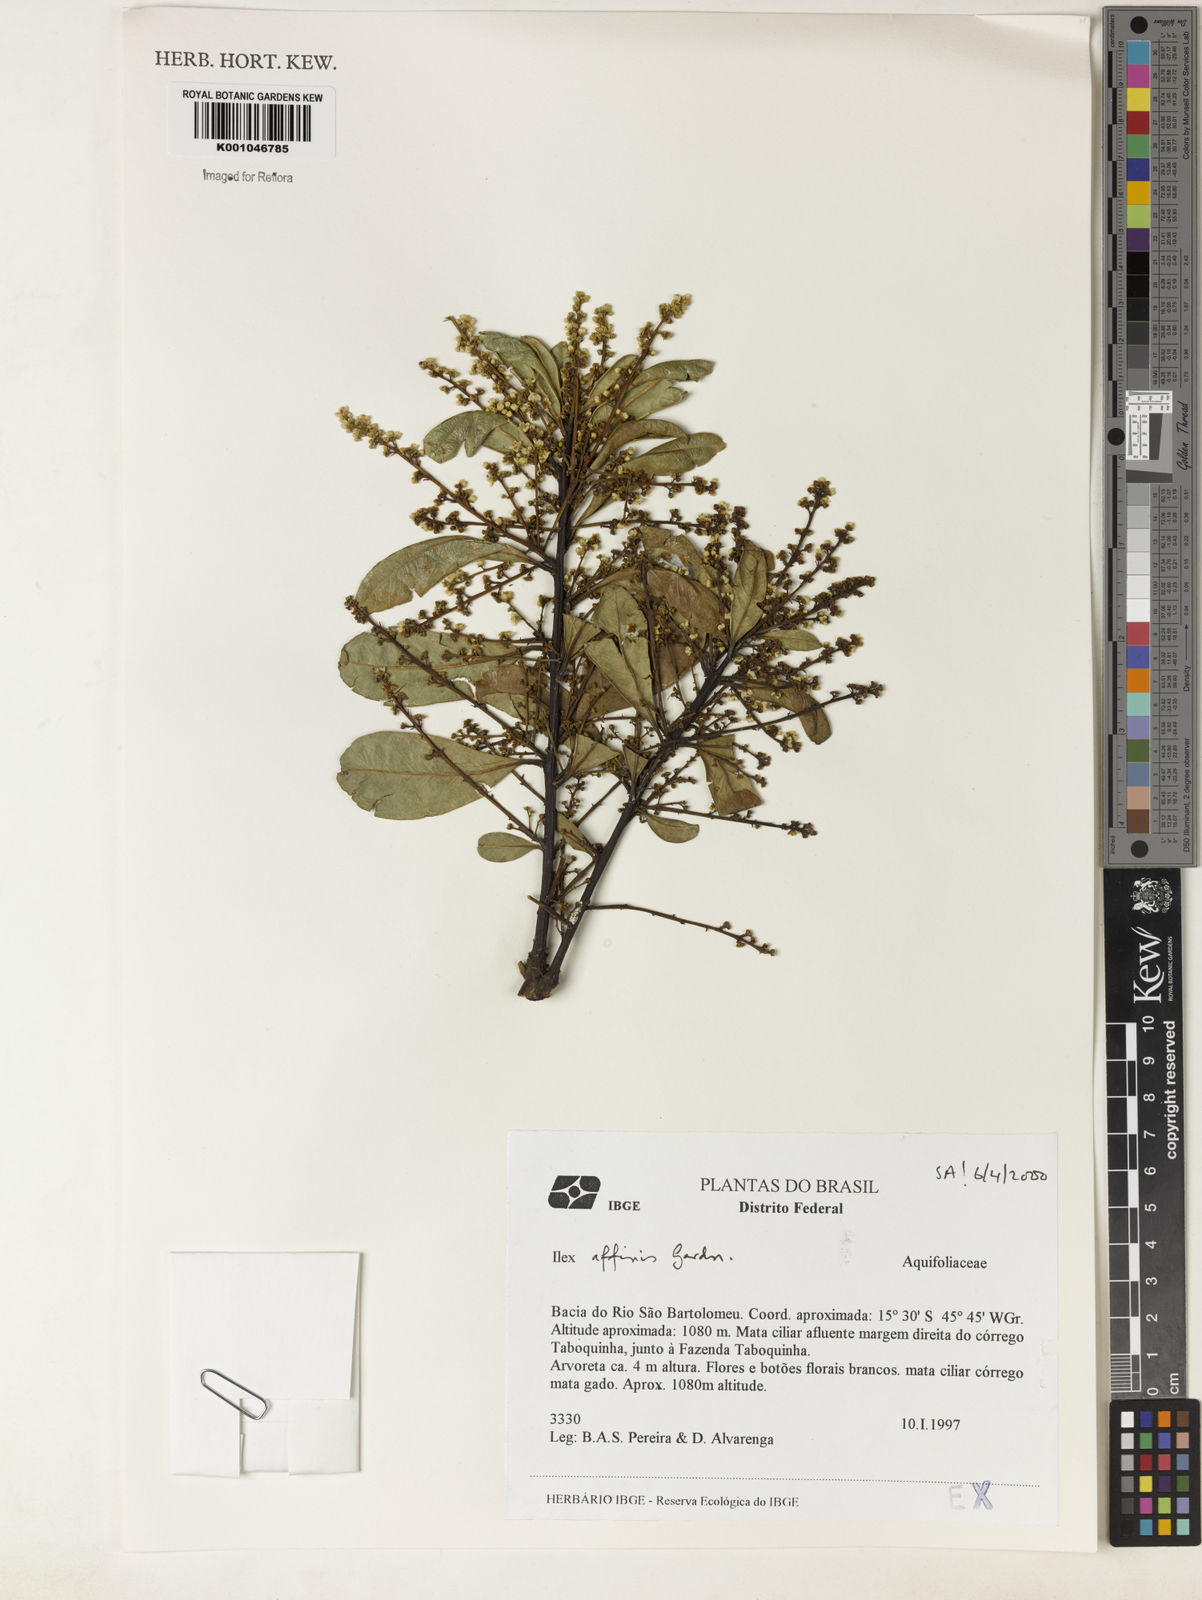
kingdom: Plantae
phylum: Tracheophyta
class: Magnoliopsida
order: Aquifoliales
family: Aquifoliaceae
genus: Ilex
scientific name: Ilex affinis
